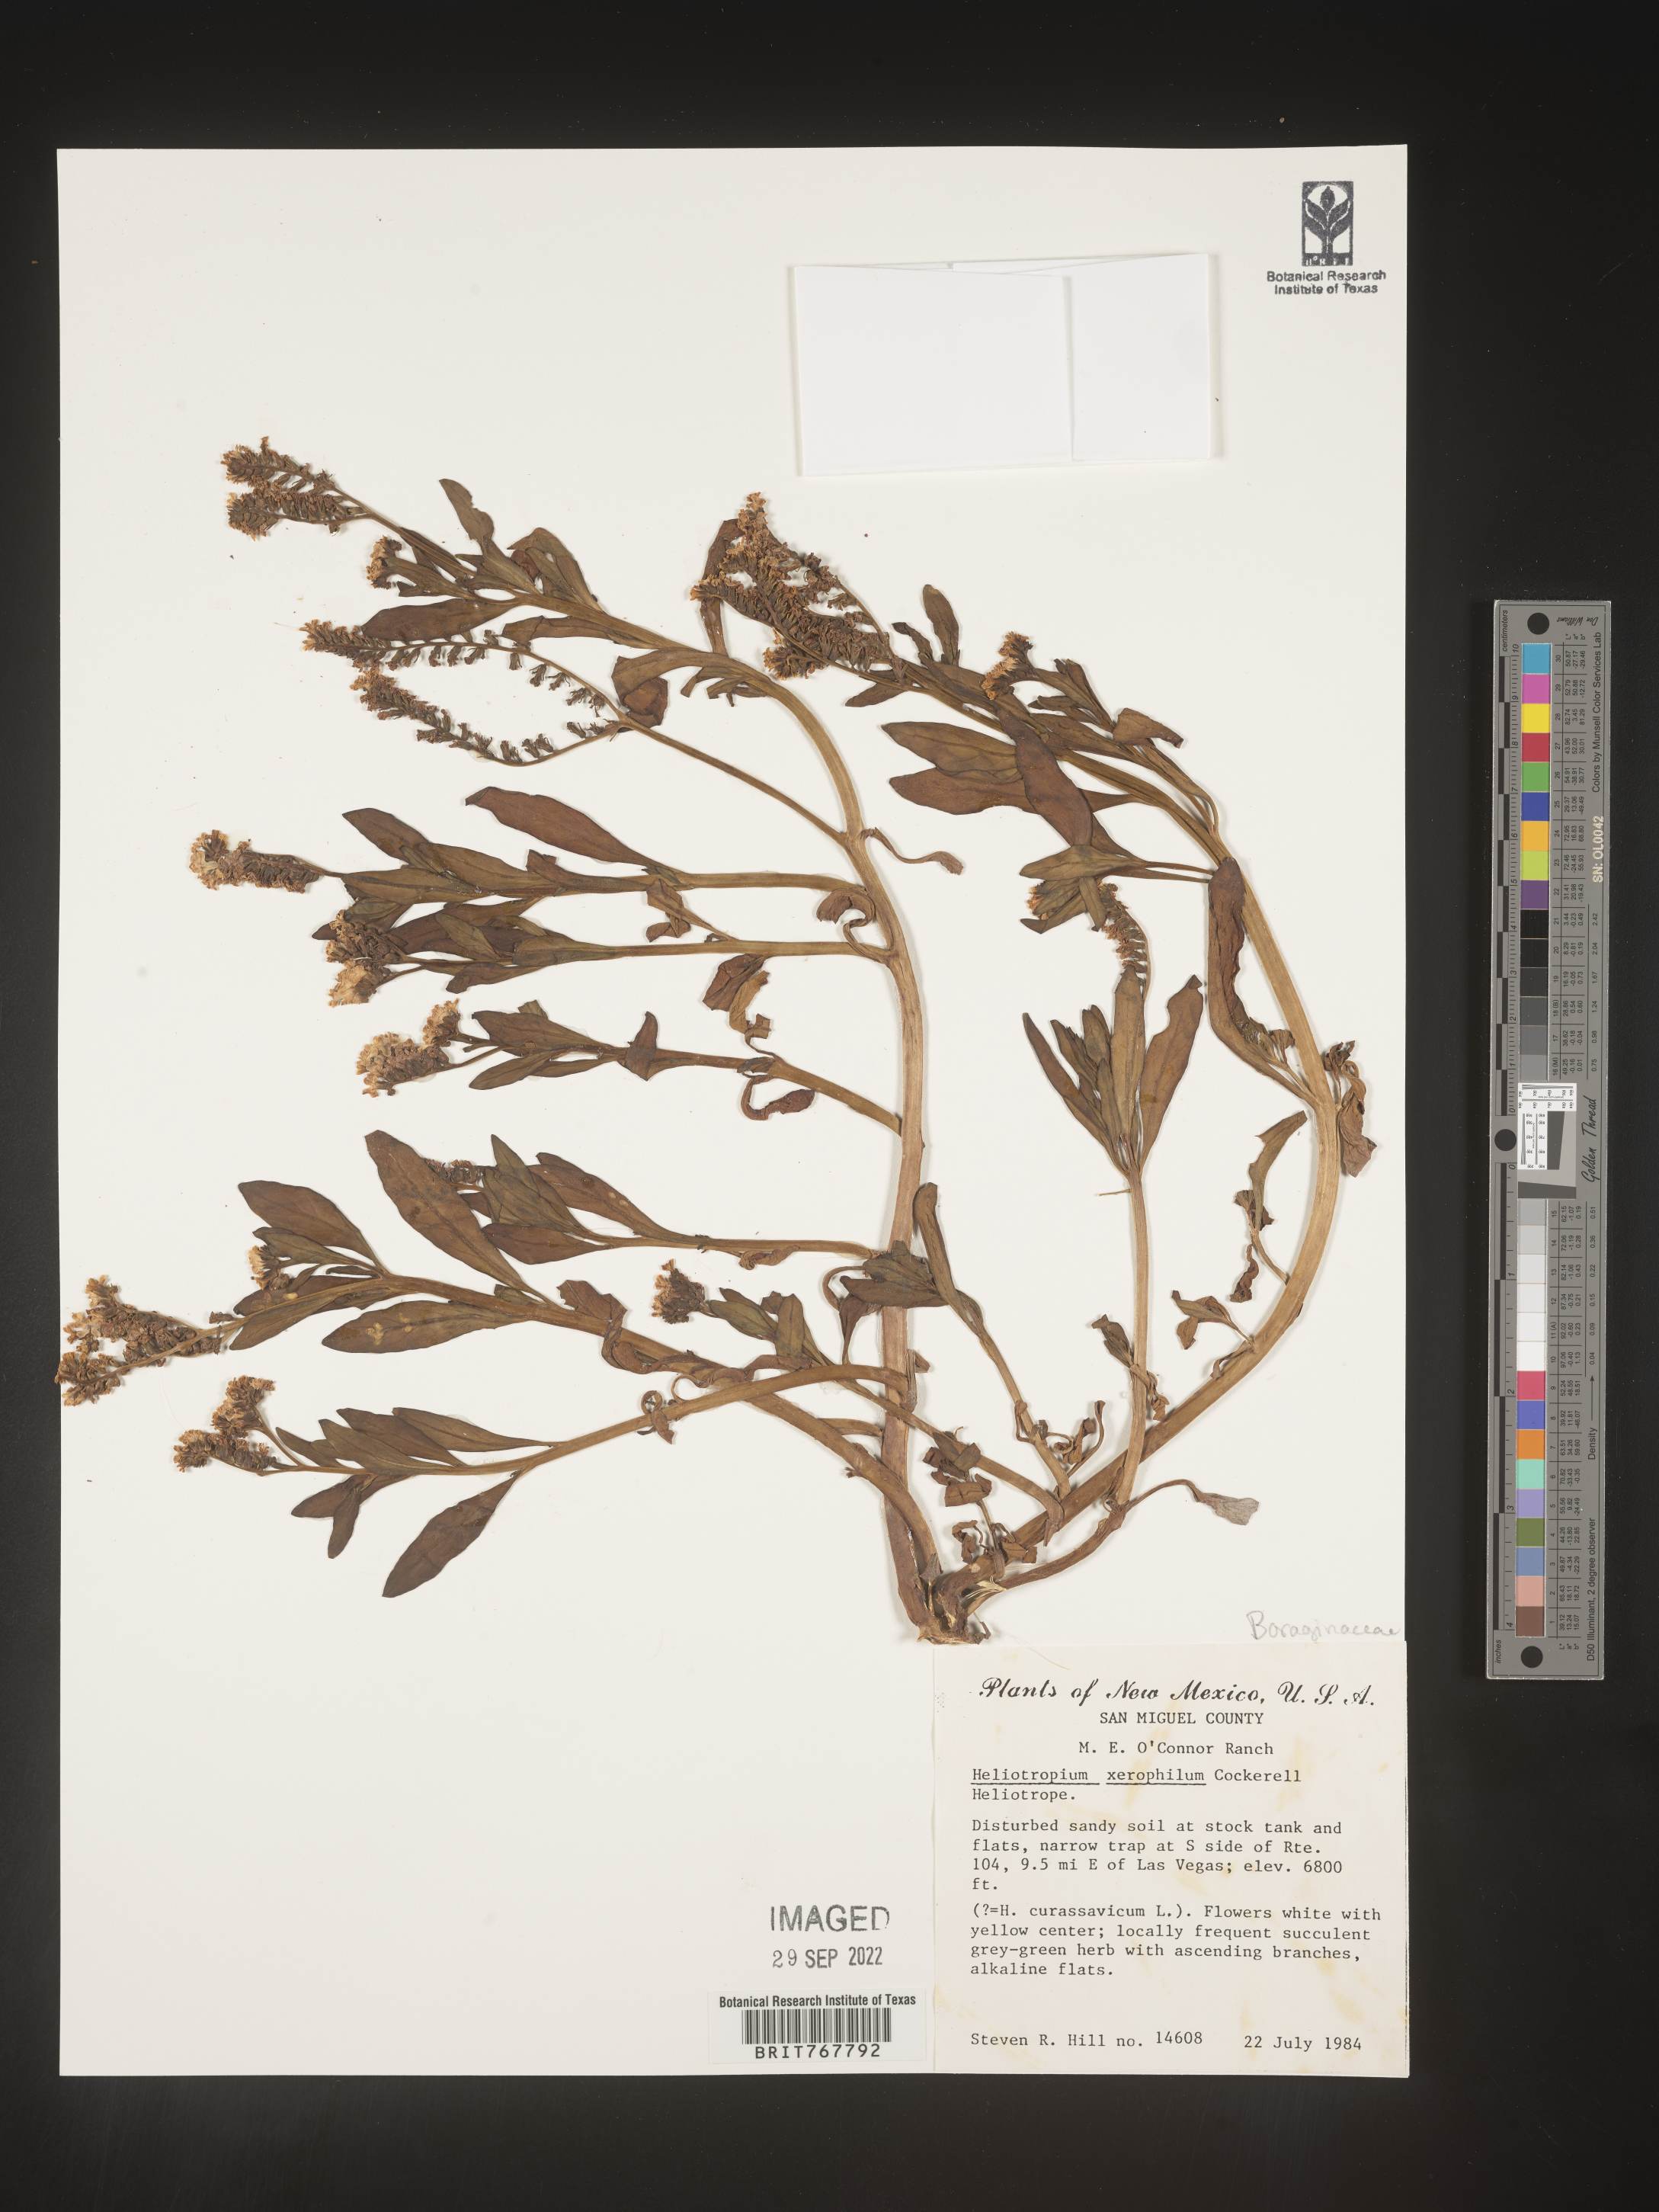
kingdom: Plantae
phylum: Tracheophyta
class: Magnoliopsida
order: Boraginales
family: Heliotropiaceae
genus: Heliotropium
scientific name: Heliotropium
